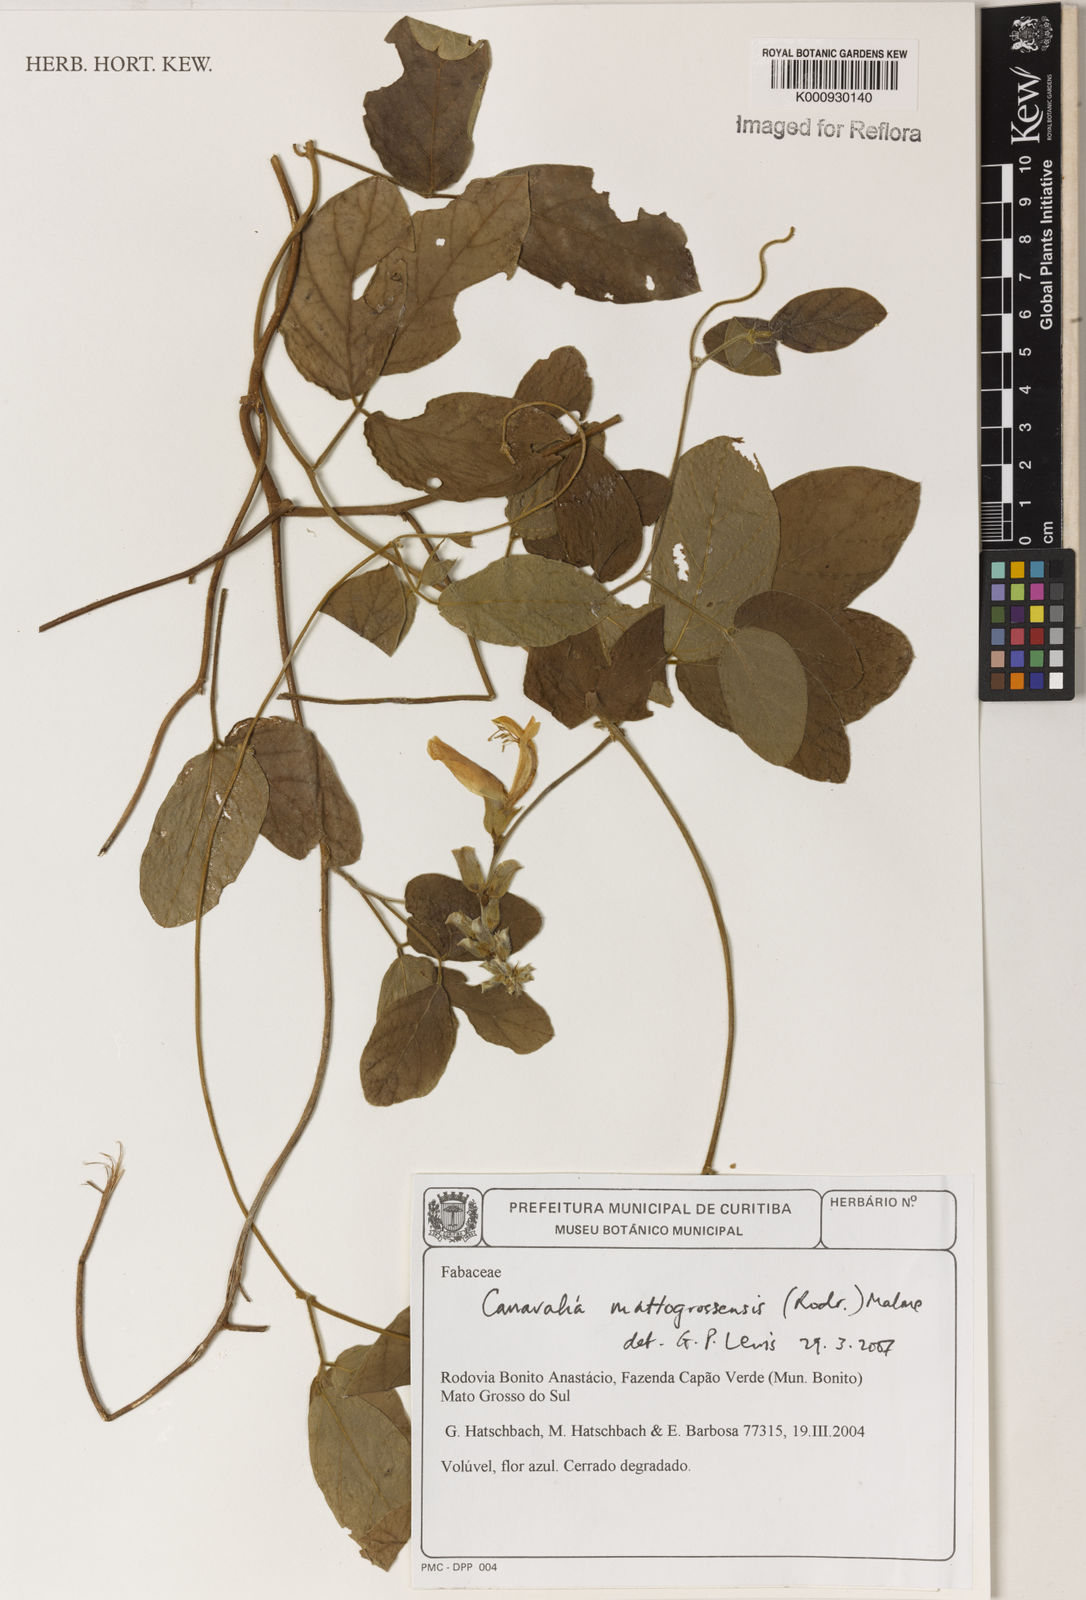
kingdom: Plantae
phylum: Tracheophyta
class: Magnoliopsida
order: Fabales
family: Fabaceae
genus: Canavalia
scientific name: Canavalia mattogrossensis
